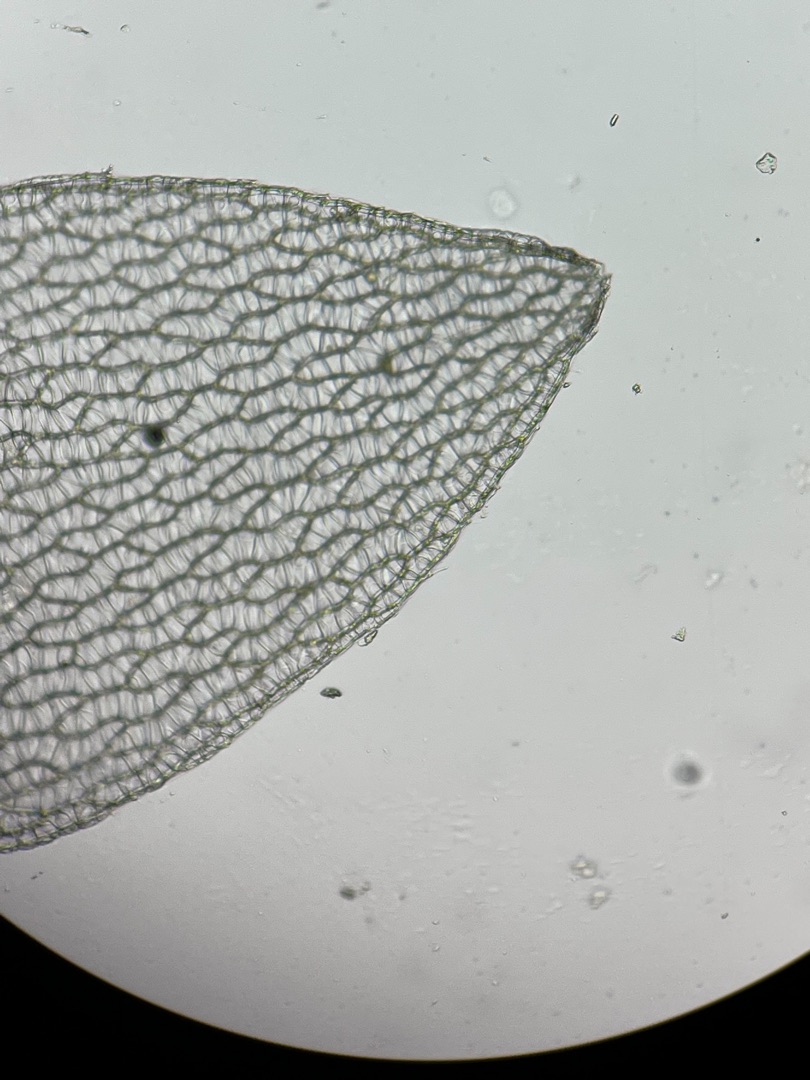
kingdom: Plantae
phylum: Bryophyta
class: Sphagnopsida
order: Sphagnales
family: Sphagnaceae
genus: Sphagnum
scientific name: Sphagnum molle
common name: Blød tørvemos
